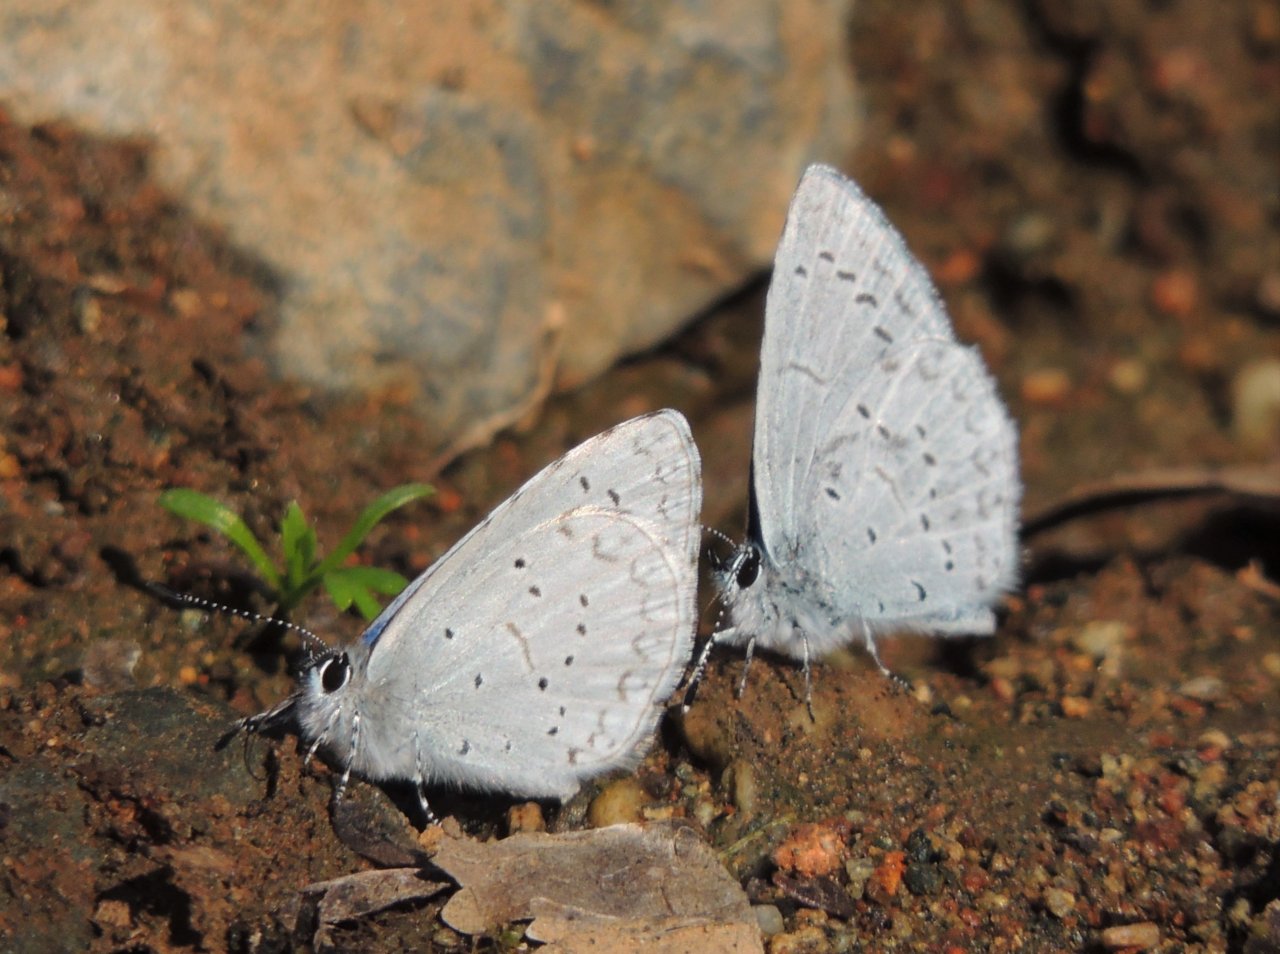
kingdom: Animalia
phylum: Arthropoda
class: Insecta
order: Lepidoptera
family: Lycaenidae
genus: Celastrina
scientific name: Celastrina ladon
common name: Echo Azure
